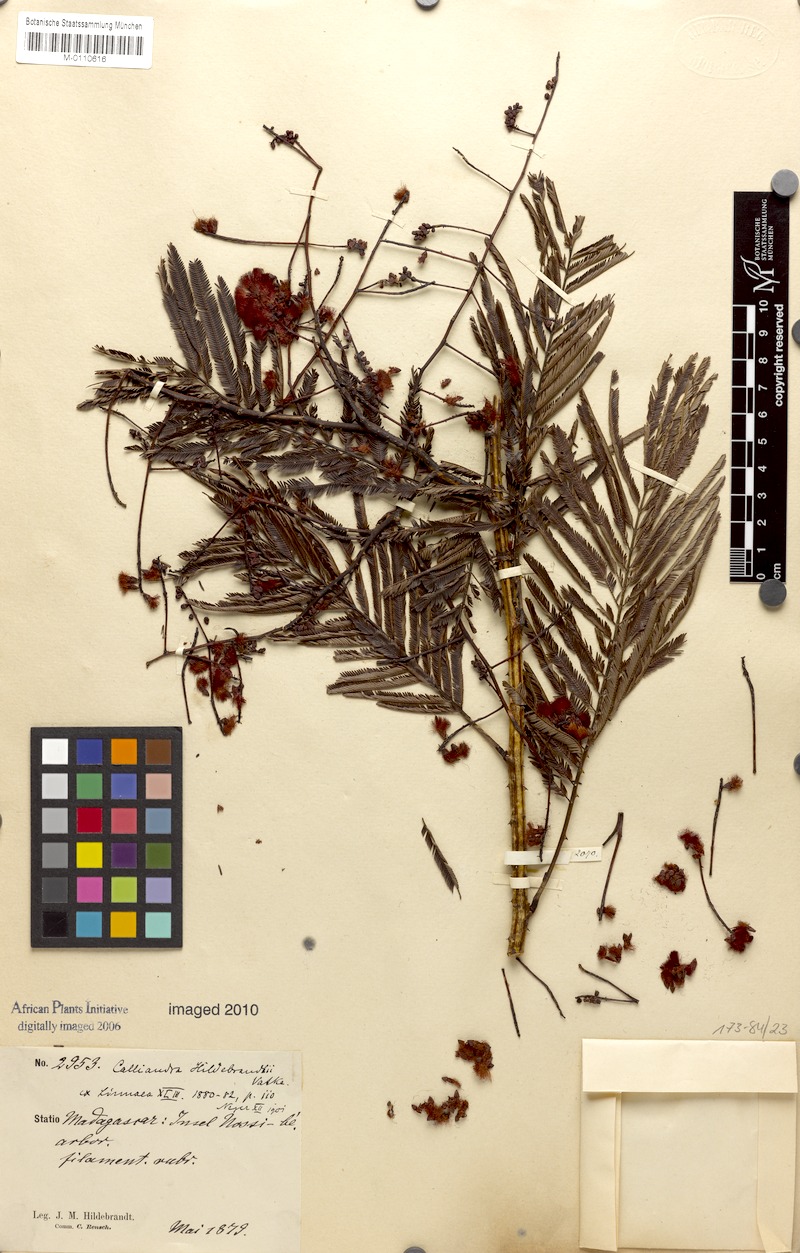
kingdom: Plantae
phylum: Tracheophyta
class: Magnoliopsida
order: Fabales
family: Fabaceae
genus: Senegalia
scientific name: Senegalia hildebrandtii
